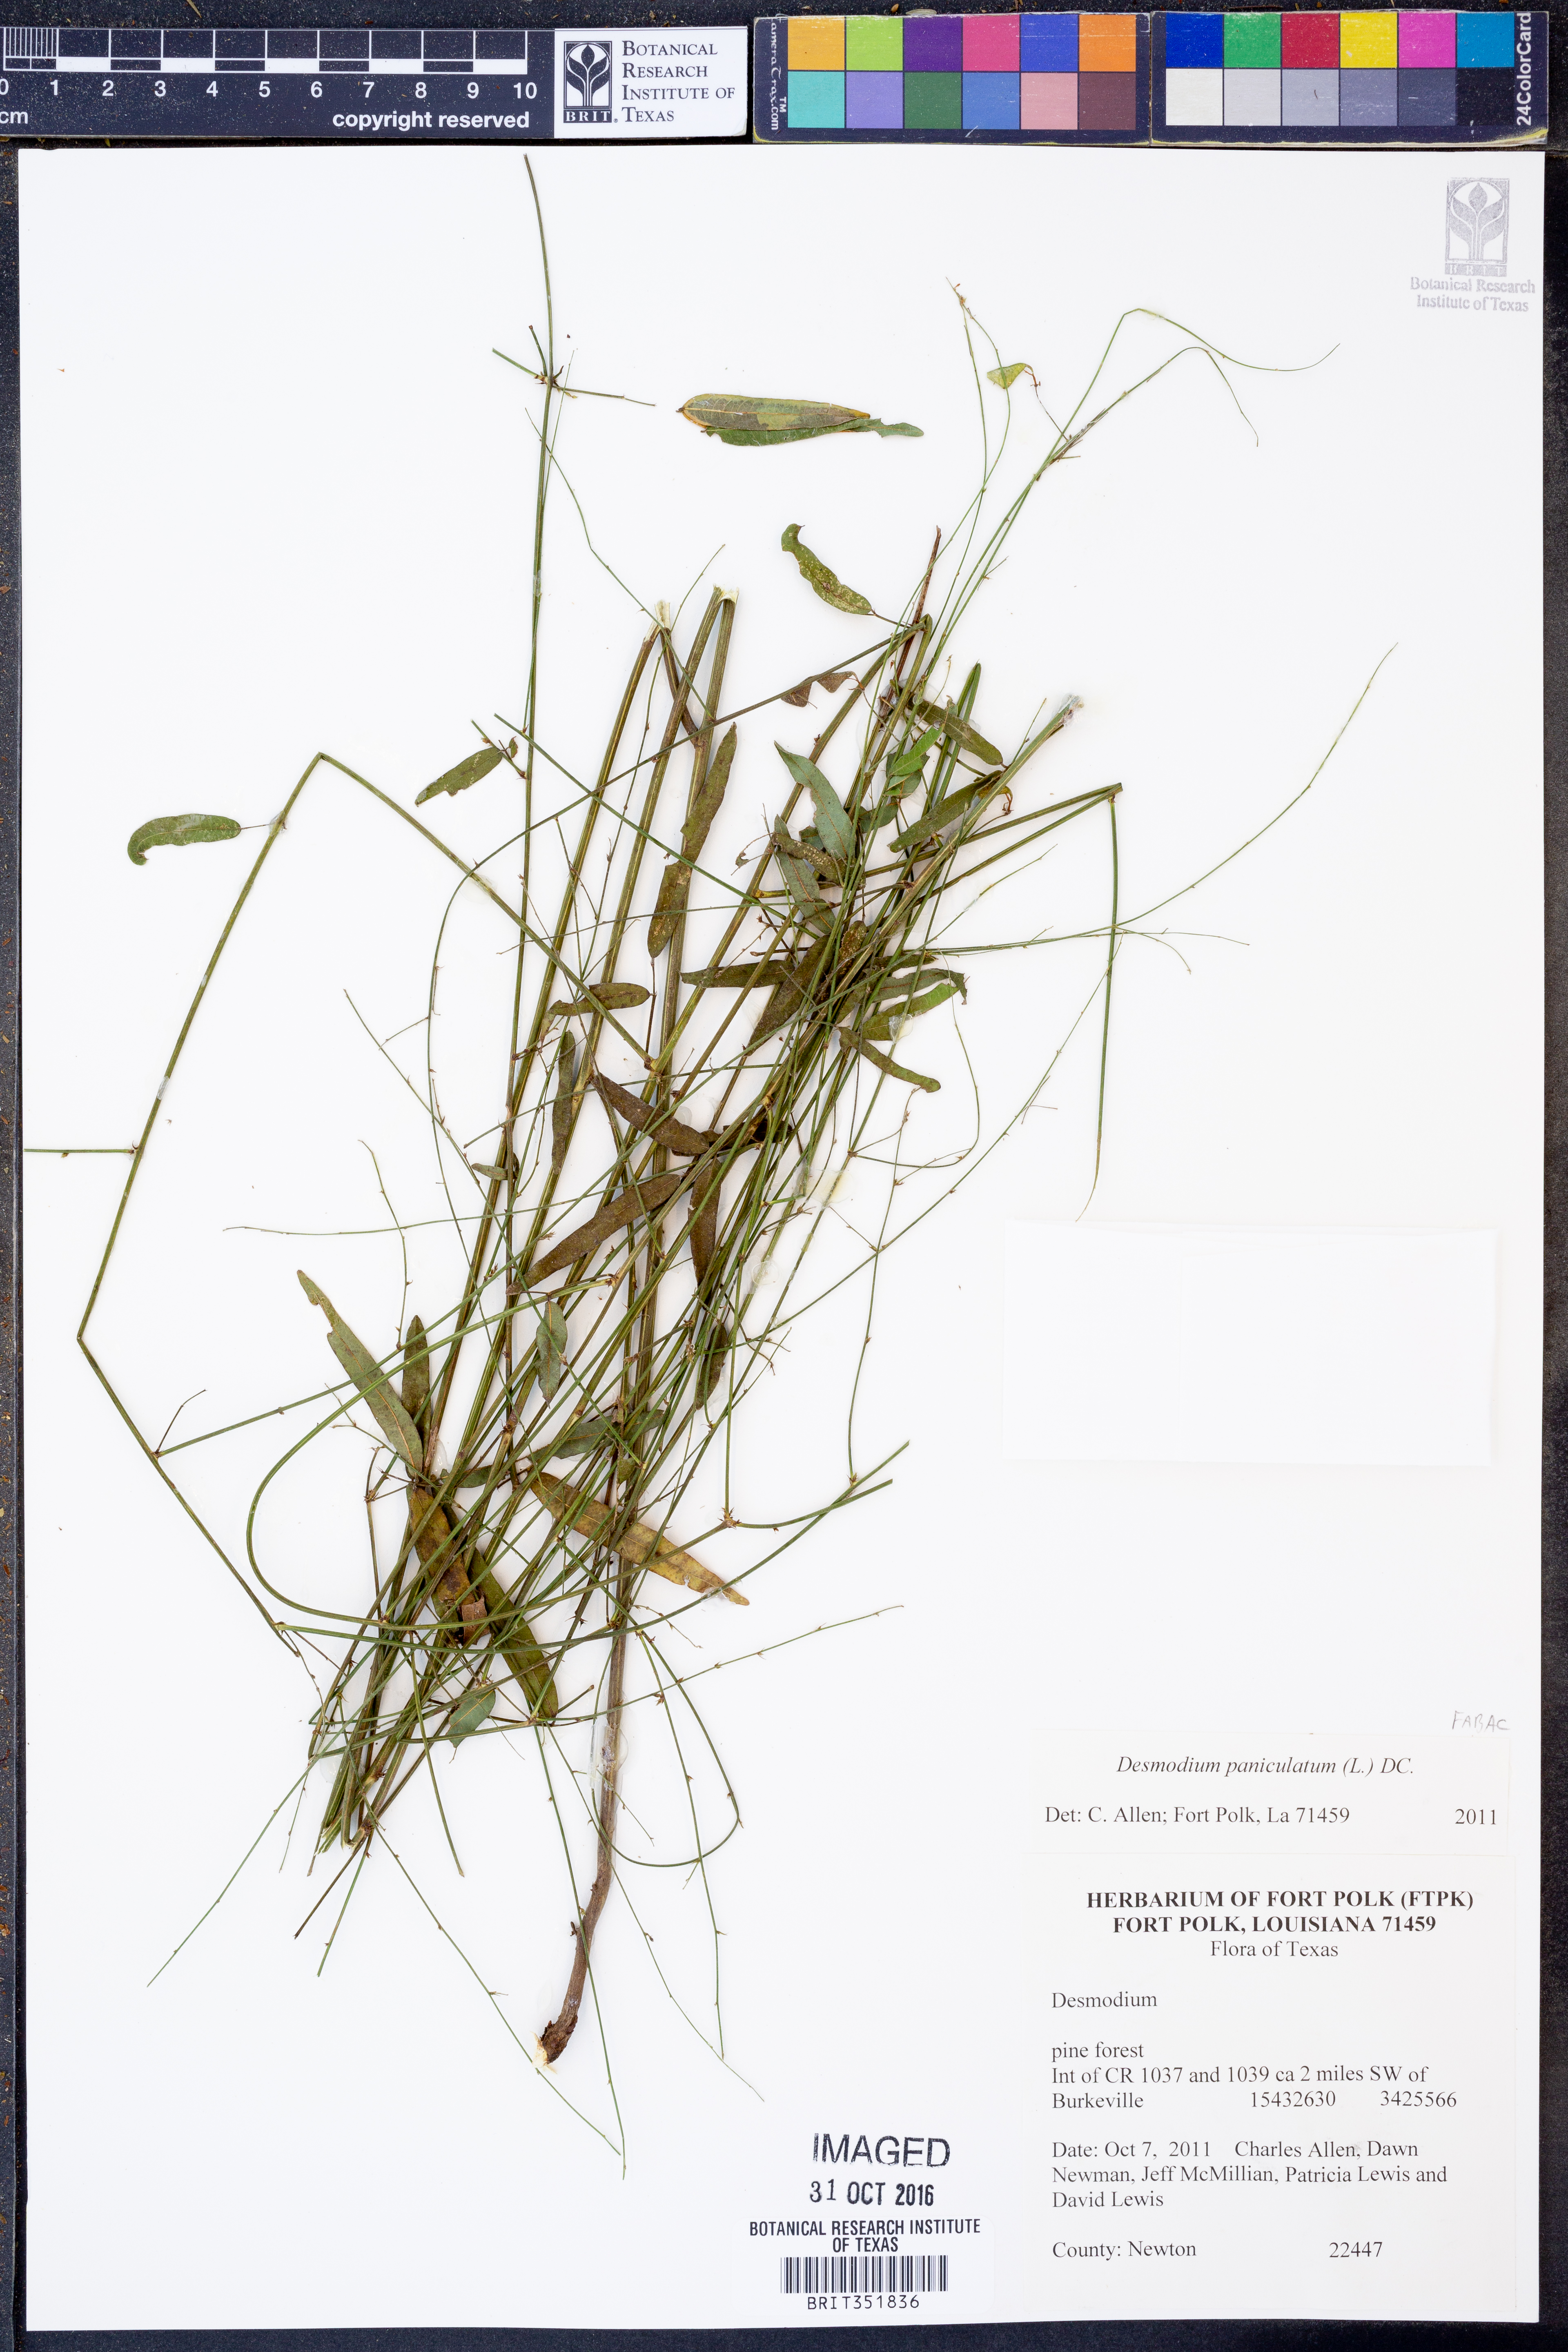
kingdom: Plantae
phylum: Tracheophyta
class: Magnoliopsida
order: Fabales
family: Fabaceae
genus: Desmodium
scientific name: Desmodium paniculatum
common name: Panicled tick-clover
